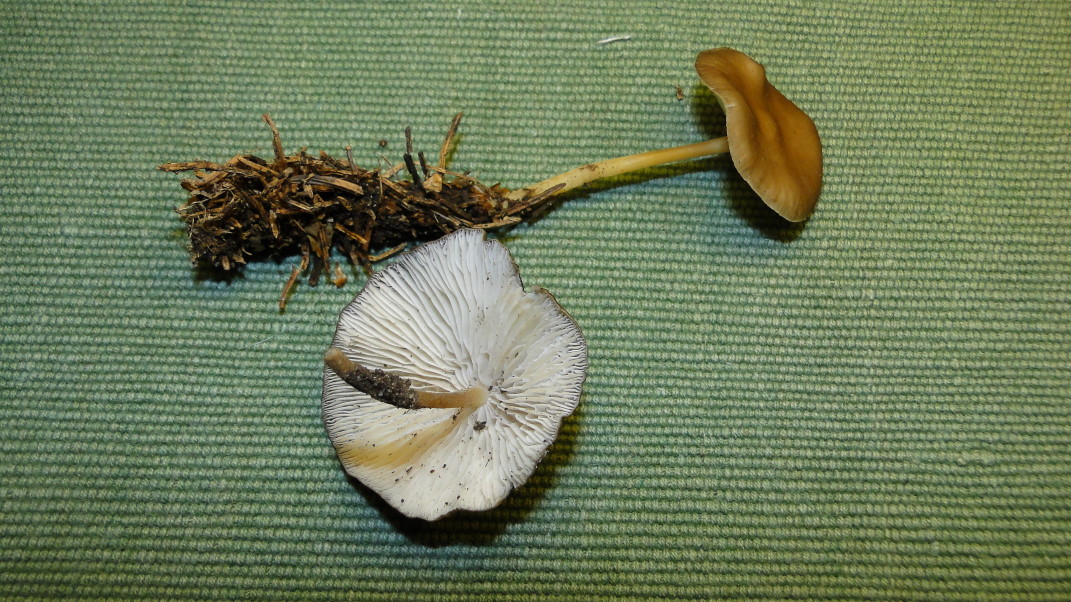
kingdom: Fungi
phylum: Basidiomycota
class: Agaricomycetes
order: Agaricales
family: Physalacriaceae
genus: Strobilurus
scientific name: Strobilurus esculentus
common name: gran-koglehat
